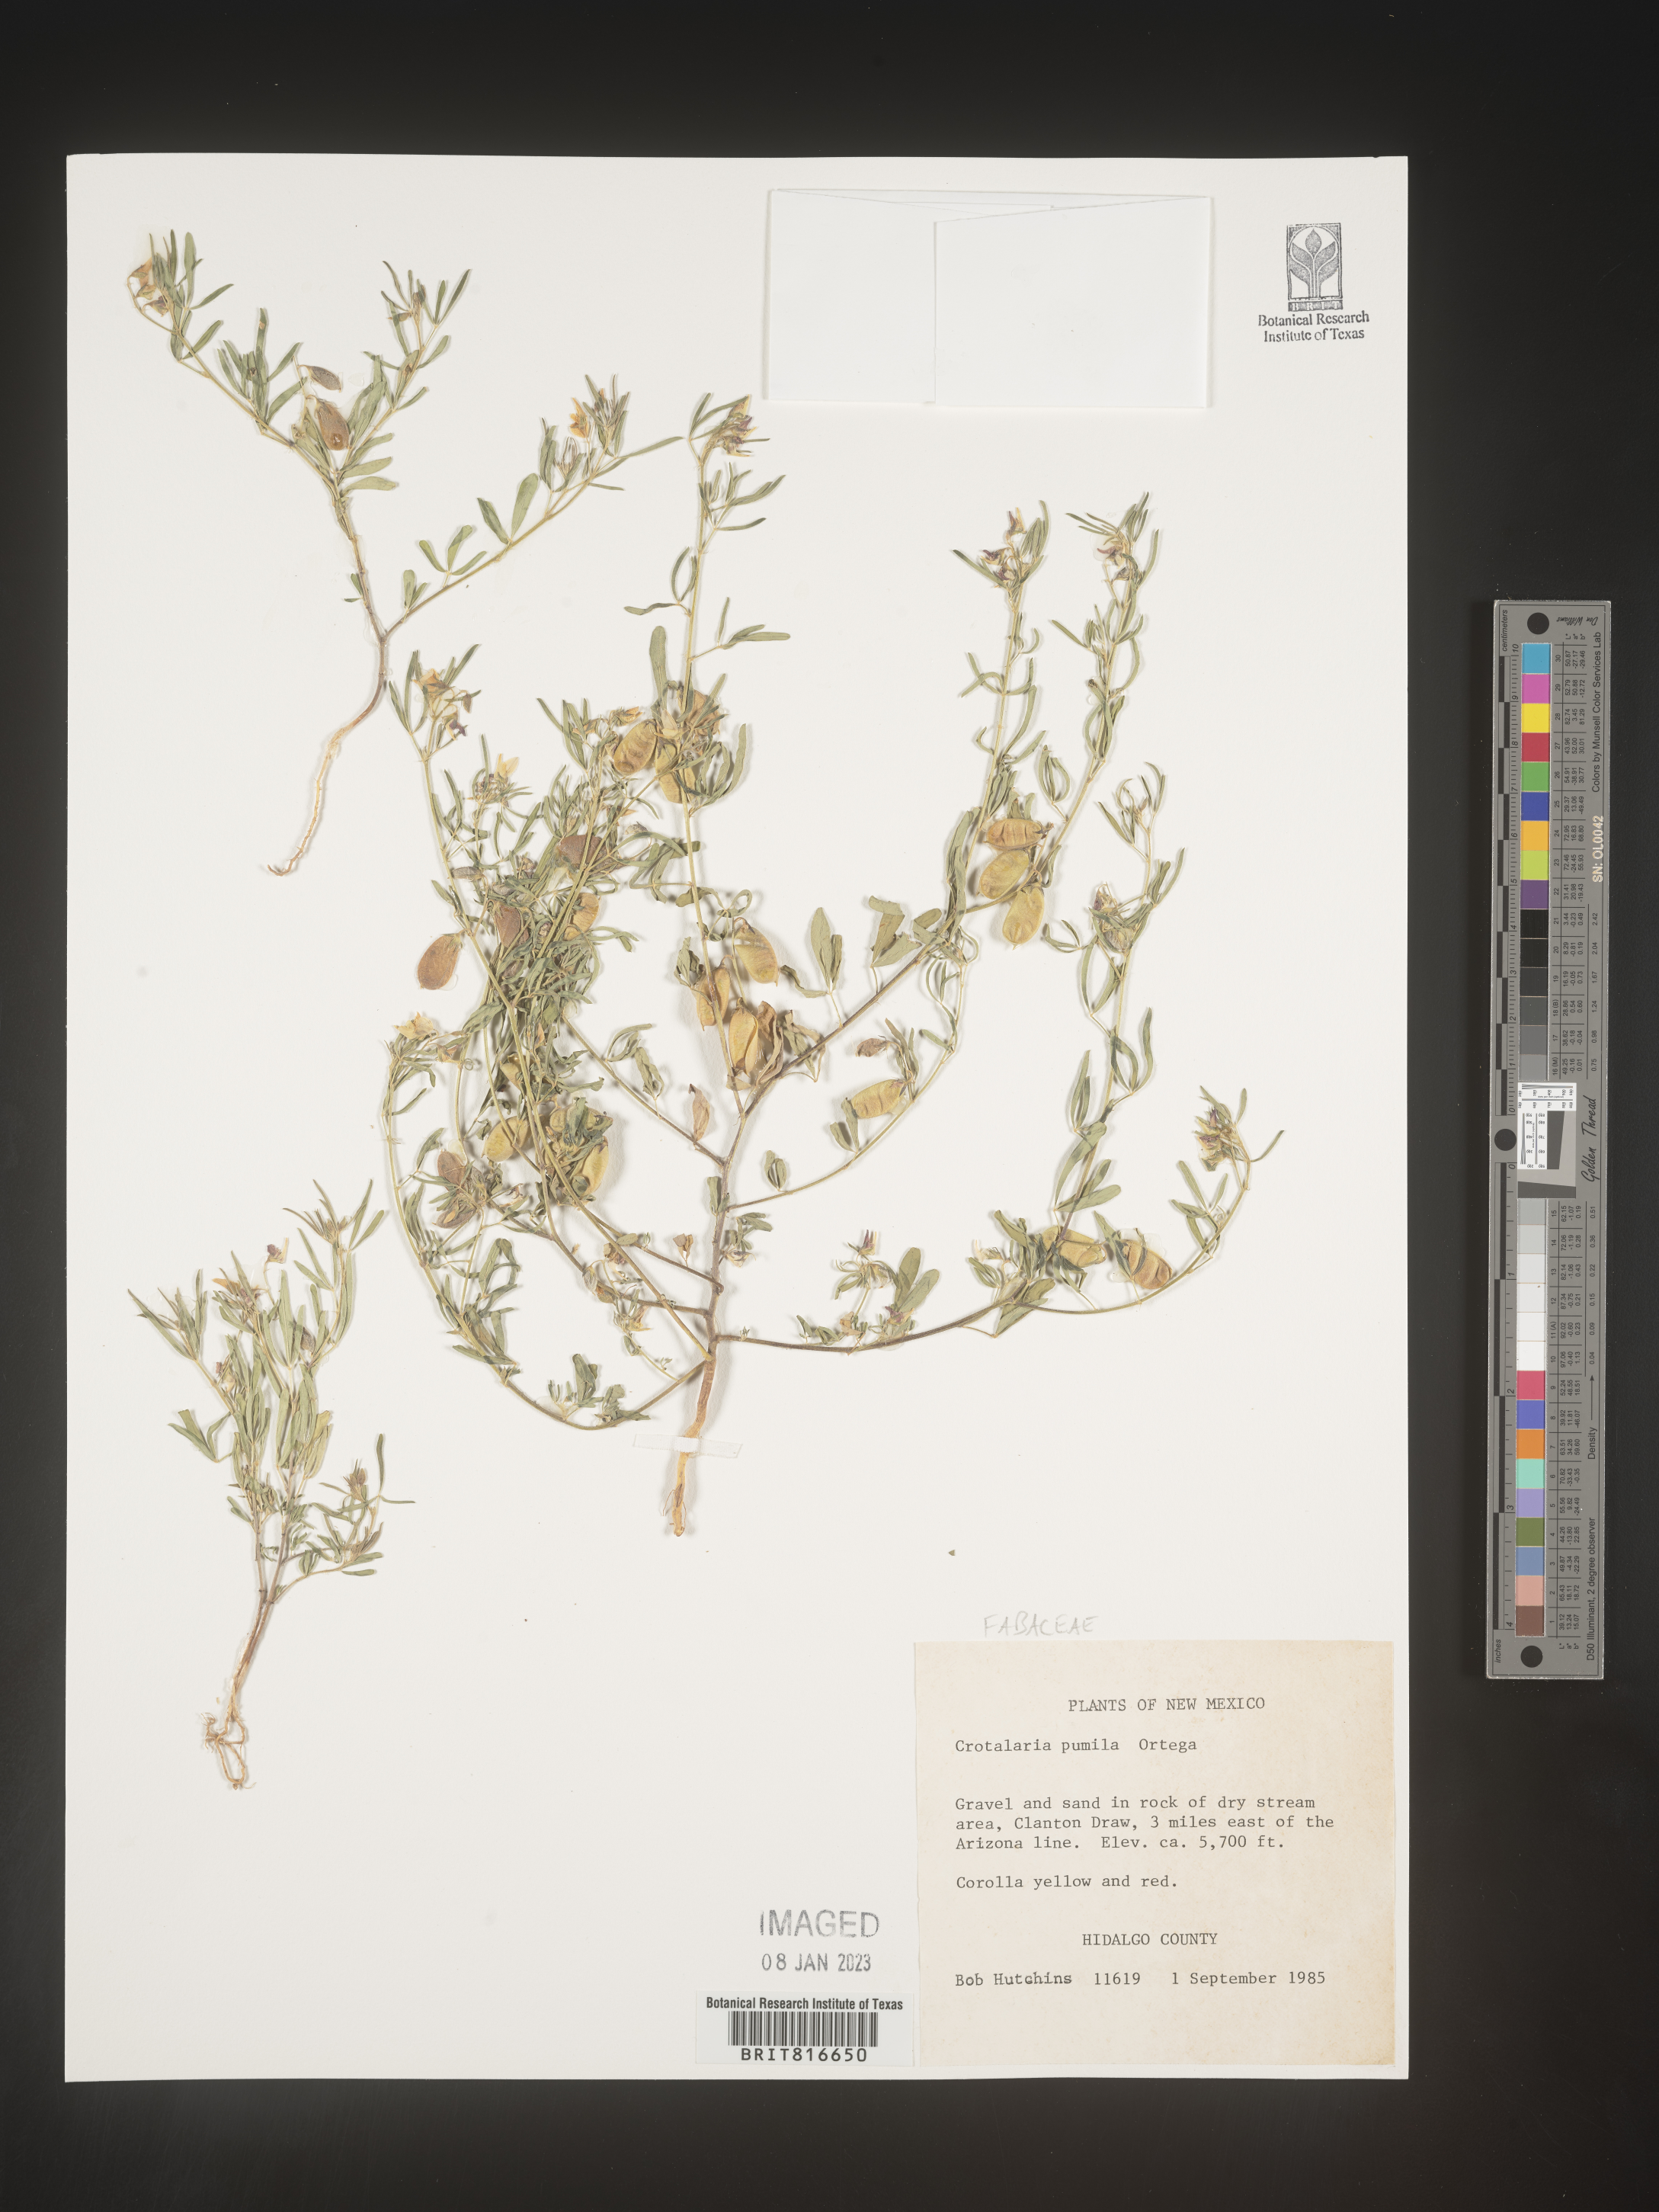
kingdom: Plantae
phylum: Tracheophyta
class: Magnoliopsida
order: Fabales
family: Fabaceae
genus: Crotalaria
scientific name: Crotalaria pumila
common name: Low rattlebox
